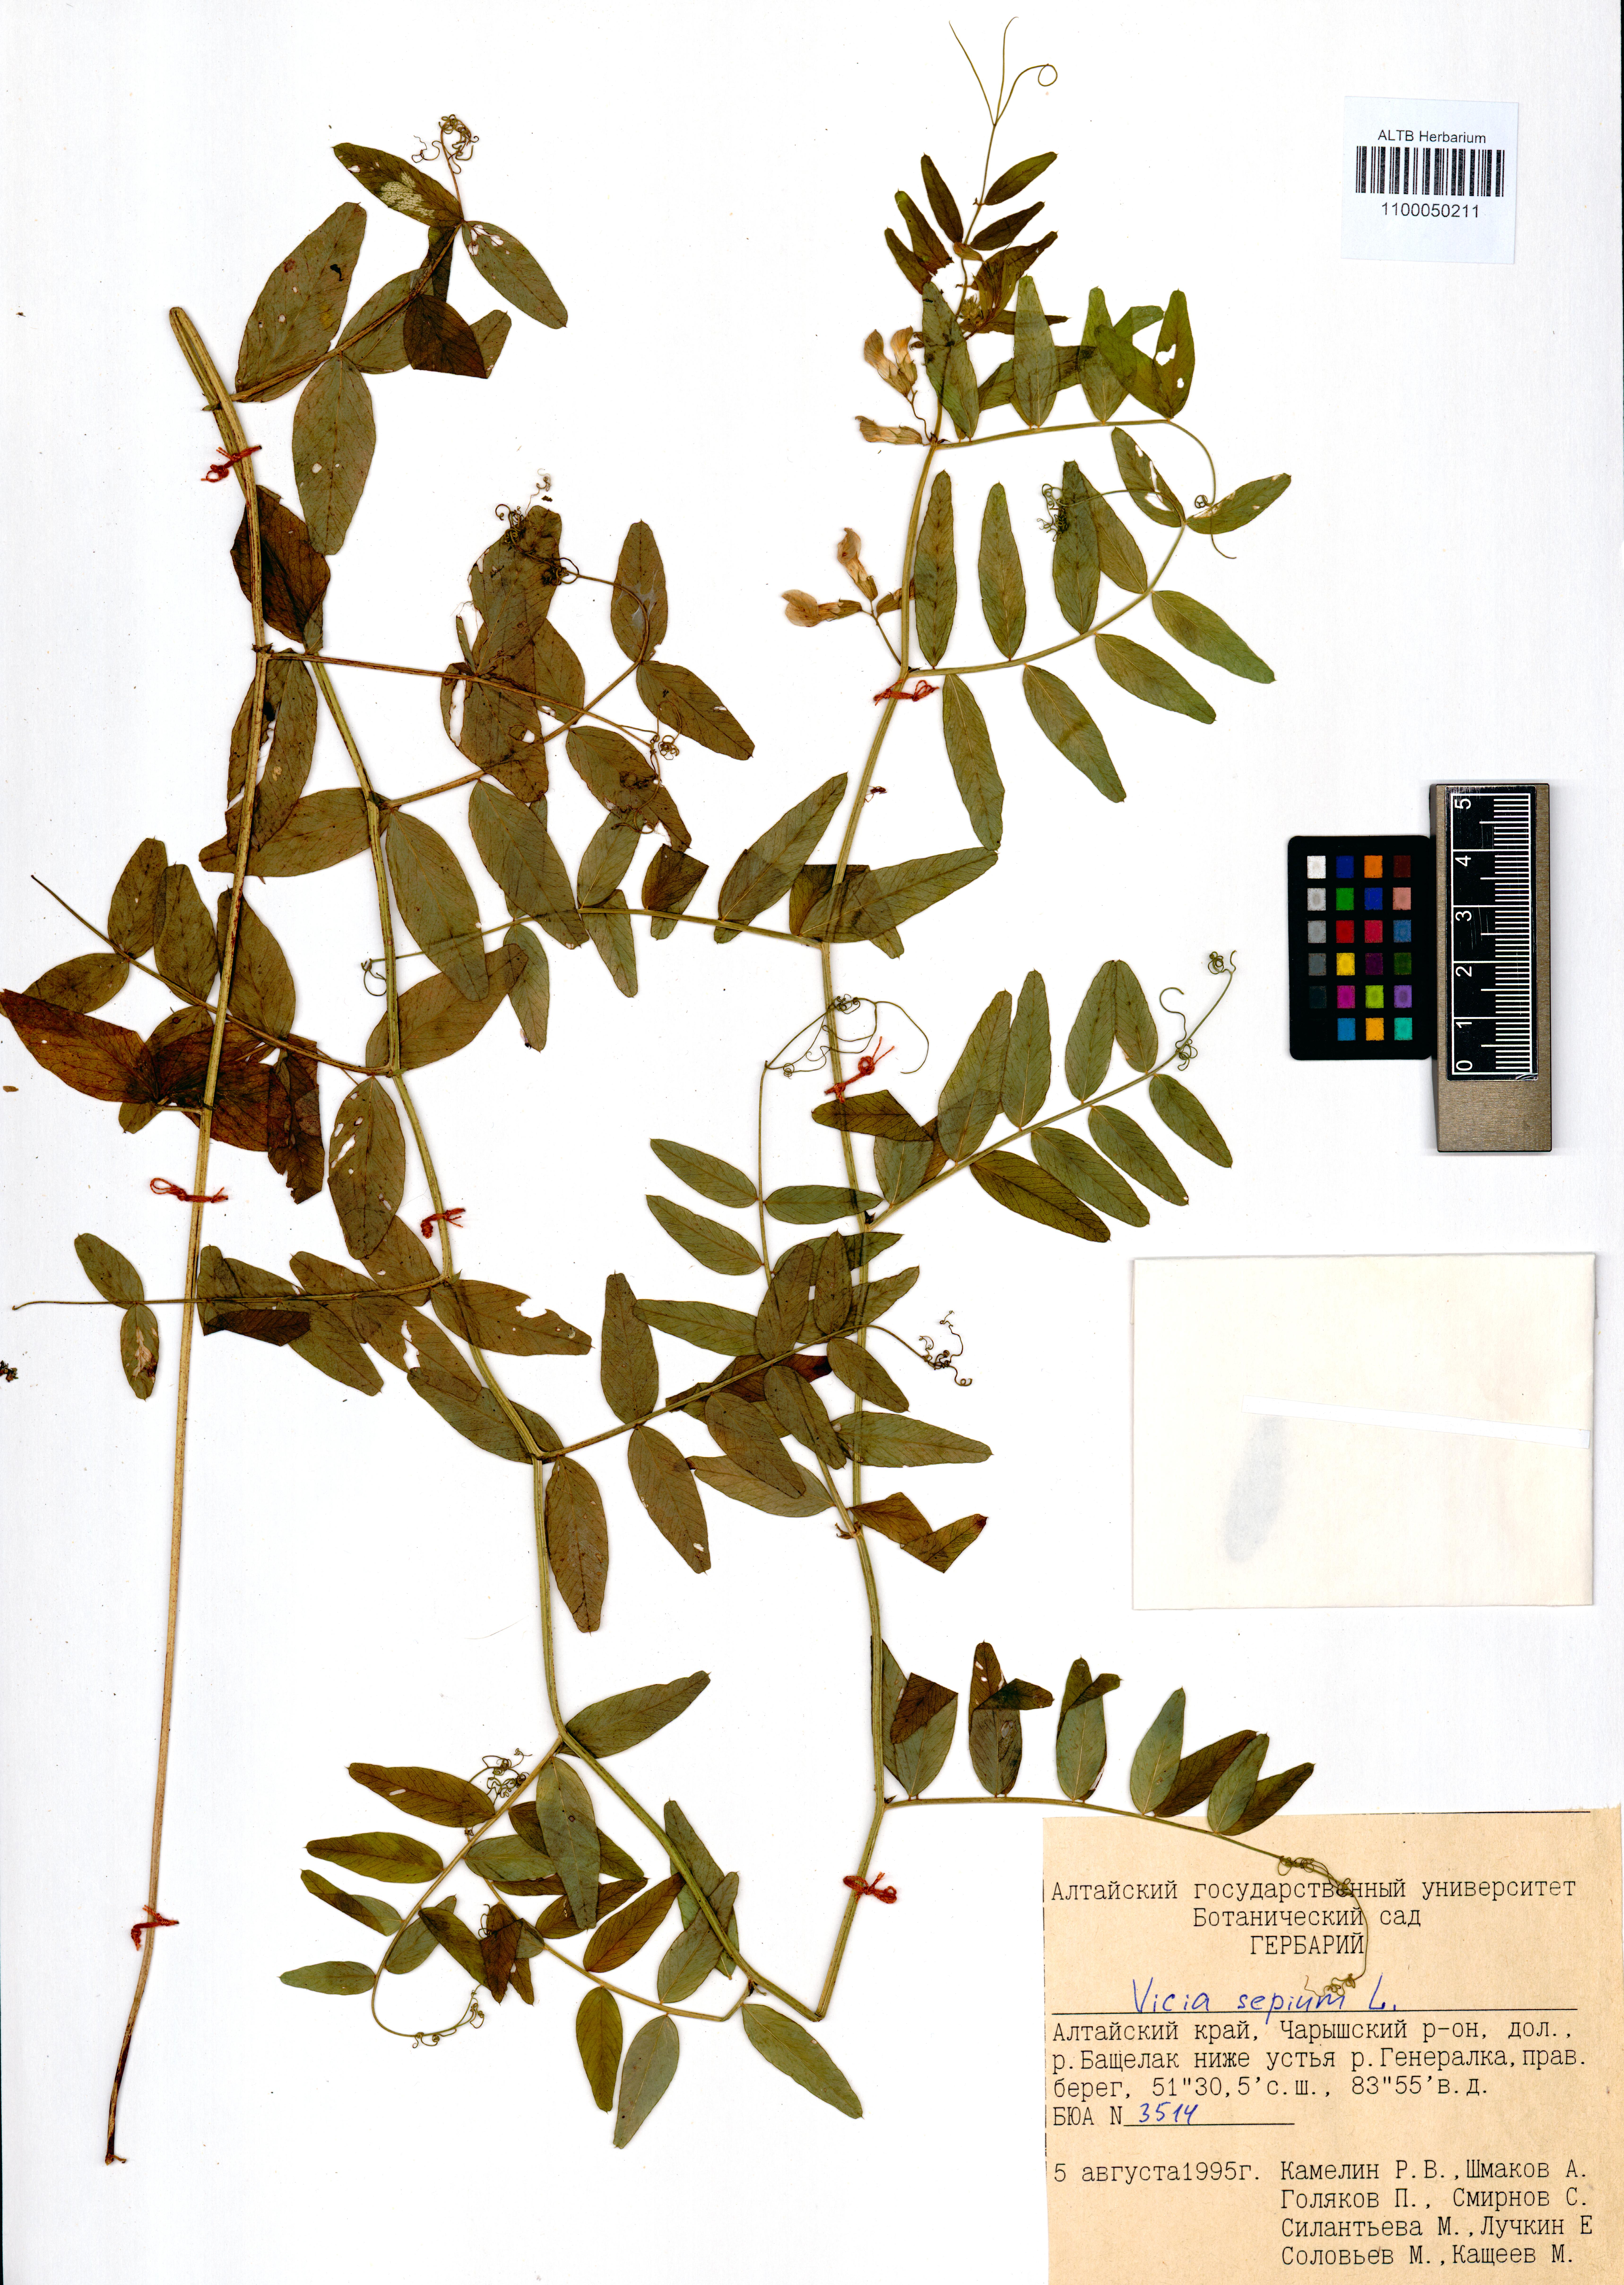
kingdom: Plantae
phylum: Tracheophyta
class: Magnoliopsida
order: Fabales
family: Fabaceae
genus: Vicia
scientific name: Vicia sepium
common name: Bush vetch
